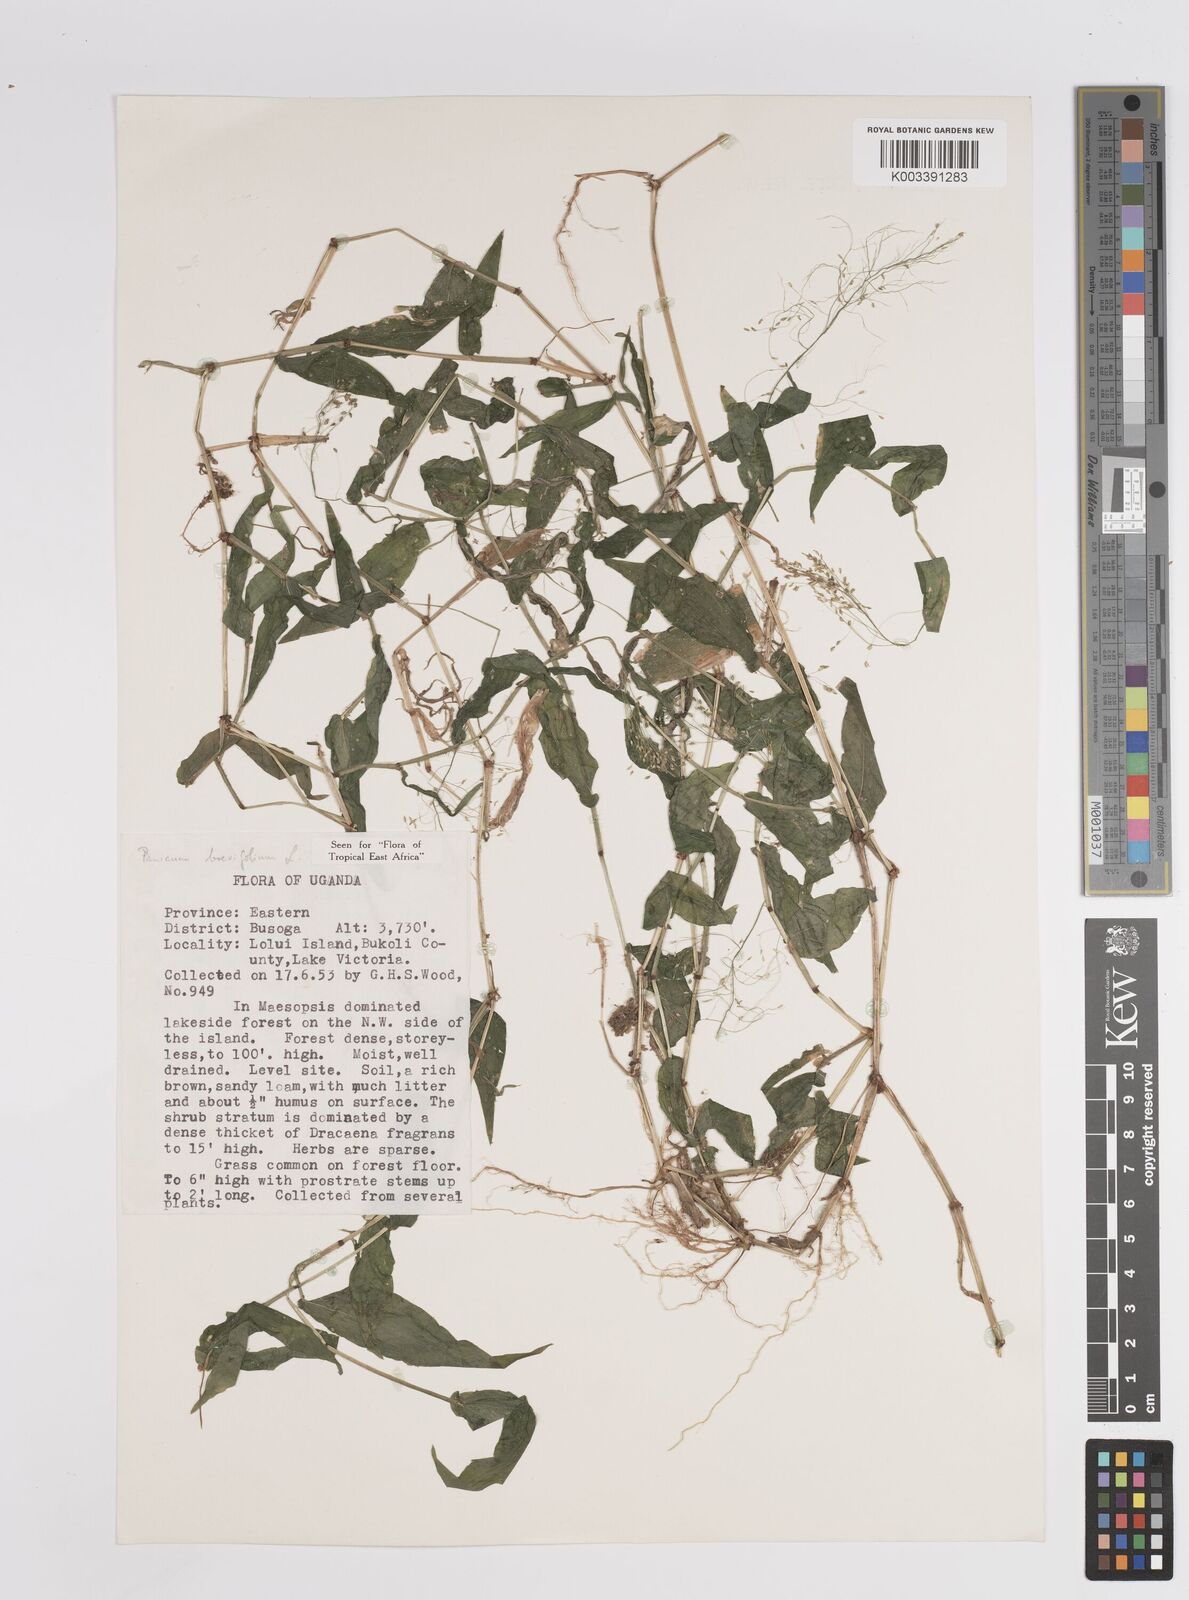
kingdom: Plantae
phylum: Tracheophyta
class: Liliopsida
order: Poales
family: Poaceae
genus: Panicum
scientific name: Panicum brevifolium
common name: Shortleaf panic grass
